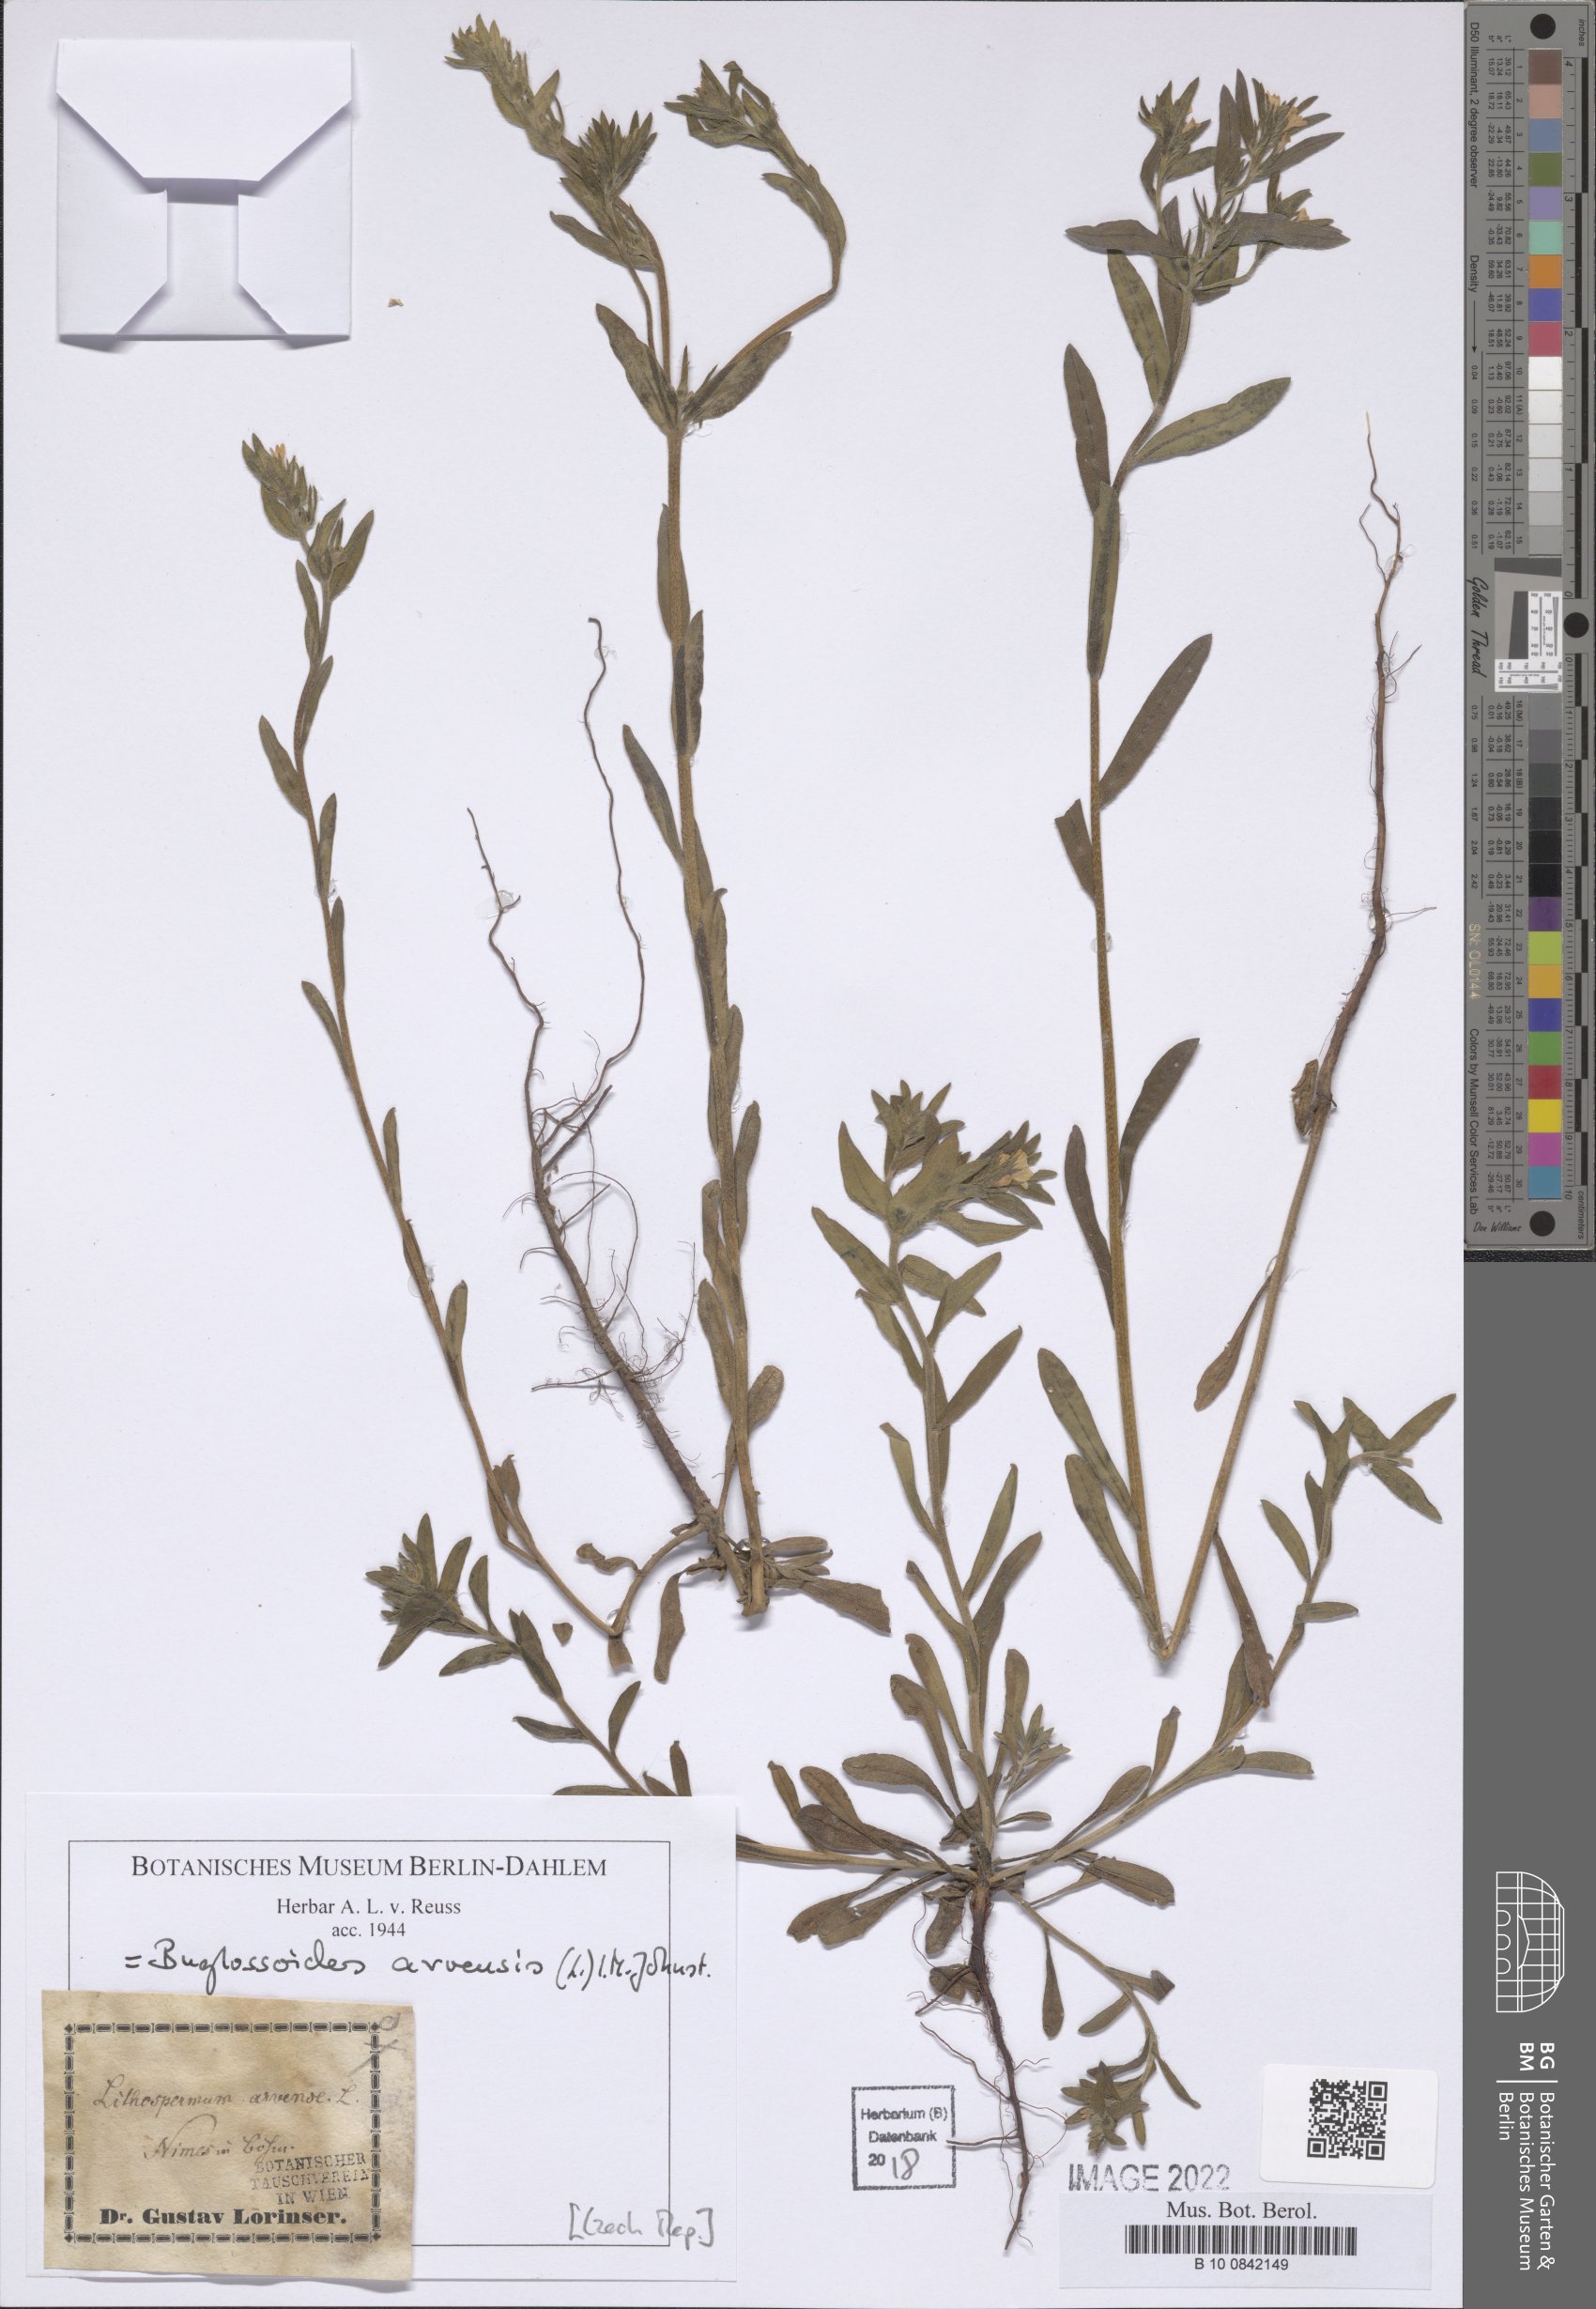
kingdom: Plantae
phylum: Tracheophyta
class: Magnoliopsida
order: Boraginales
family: Boraginaceae
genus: Buglossoides
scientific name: Buglossoides arvensis
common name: Corn gromwell
